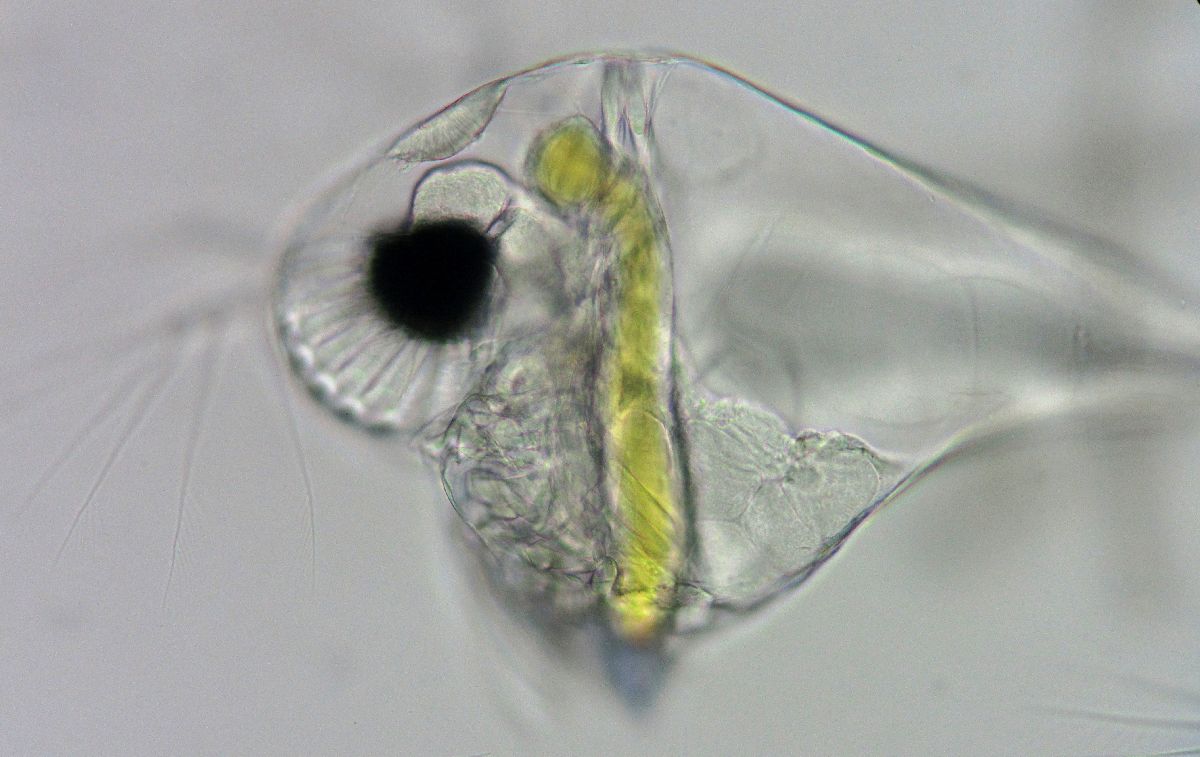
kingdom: Animalia
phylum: Arthropoda
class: Branchiopoda
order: Diplostraca
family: Podonidae
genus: Evadne
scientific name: Evadne nordmanni
